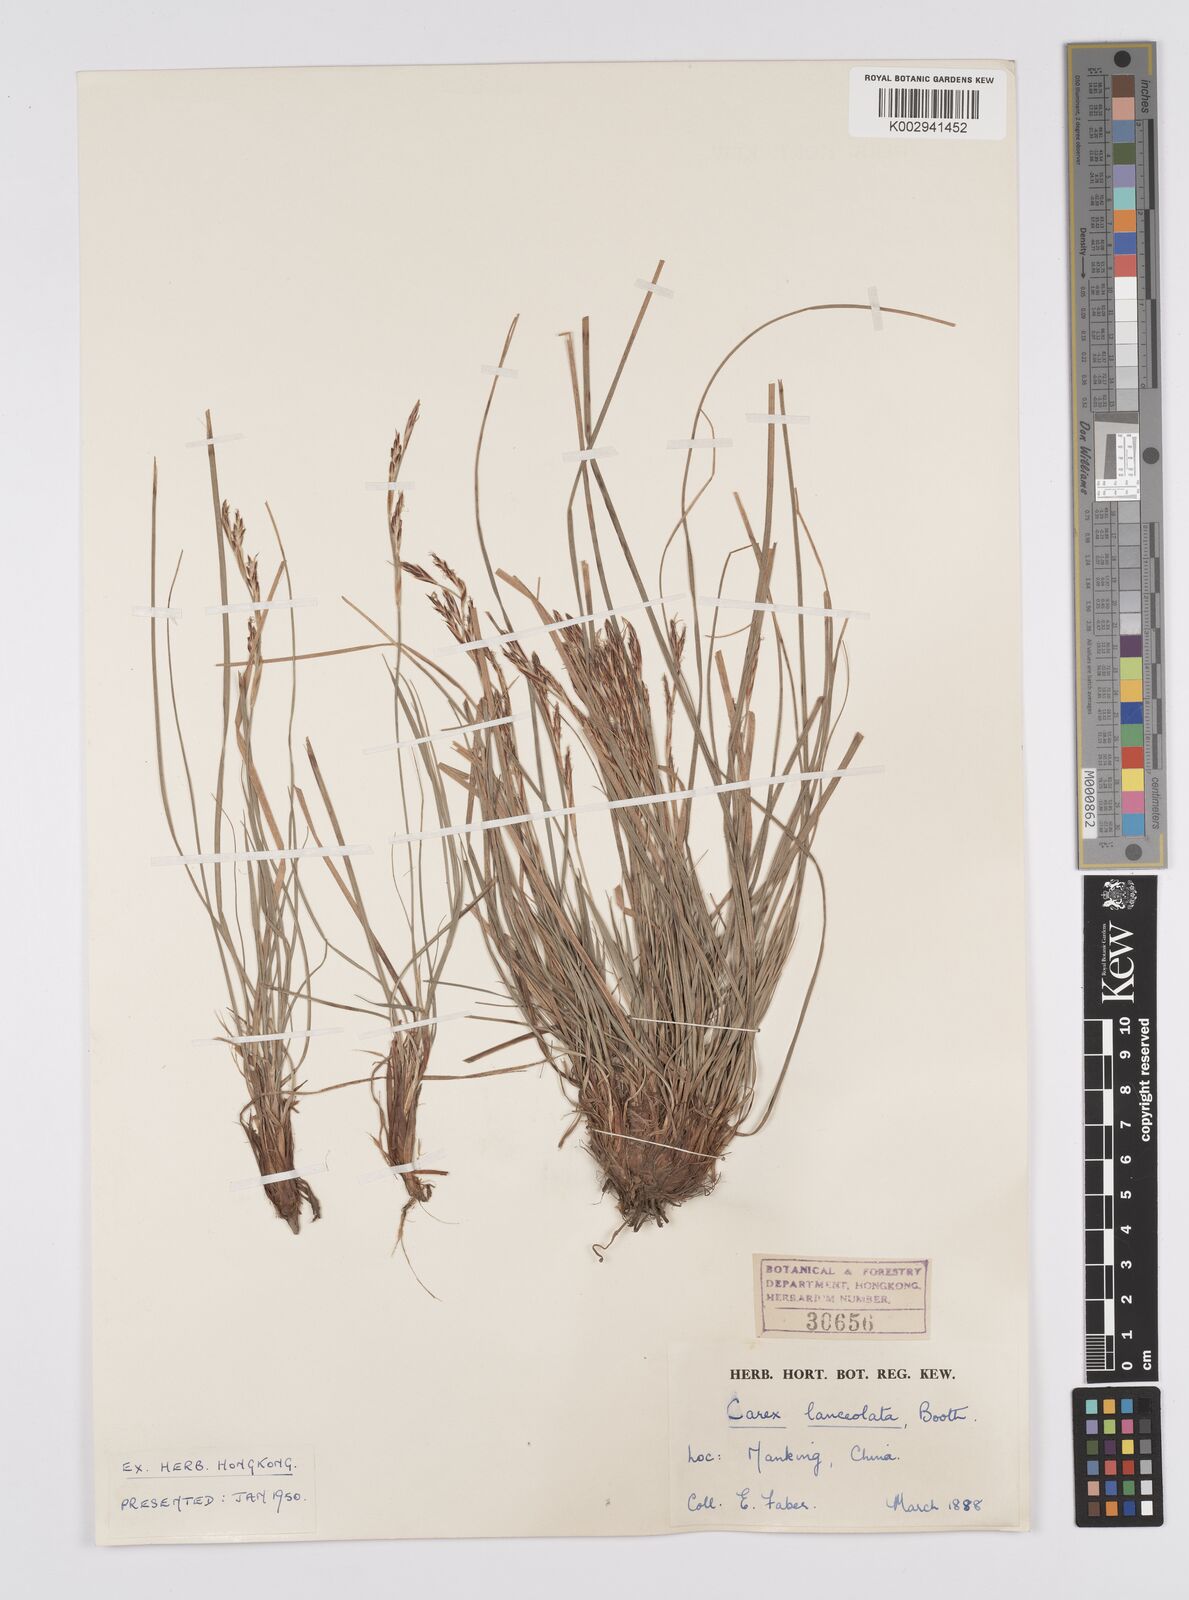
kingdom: Plantae
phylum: Tracheophyta
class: Liliopsida
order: Poales
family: Cyperaceae
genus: Carex
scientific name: Carex lanceolata
